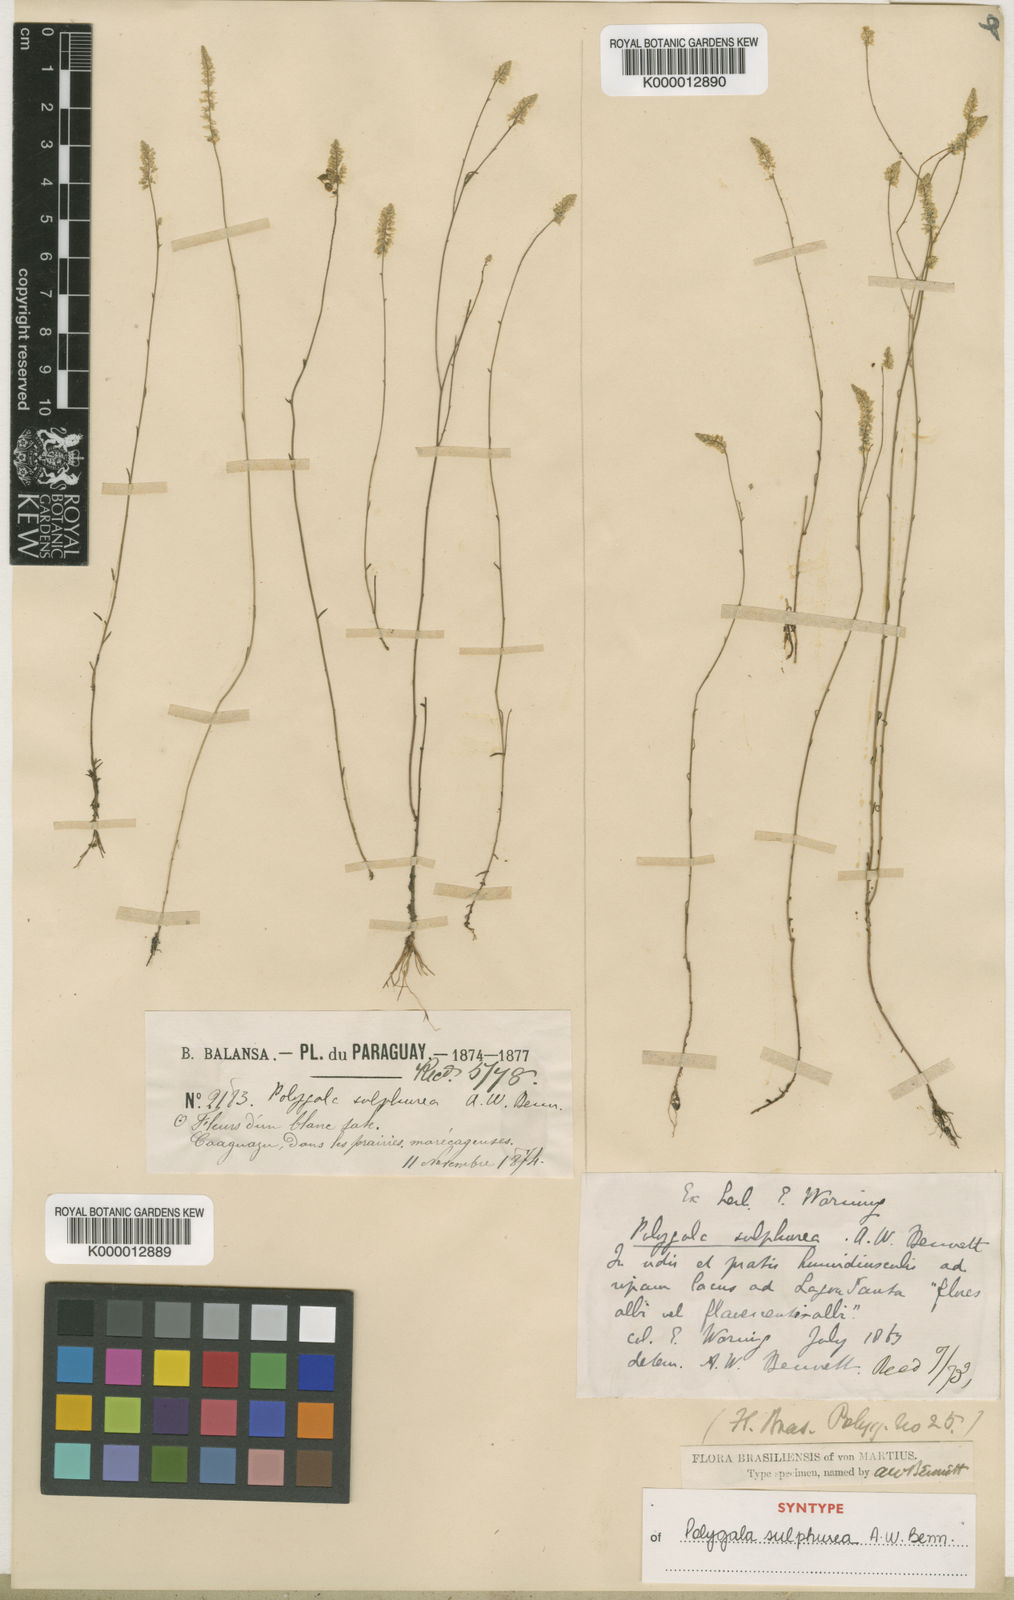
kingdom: Plantae
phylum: Tracheophyta
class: Magnoliopsida
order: Fabales
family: Polygalaceae
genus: Polygala
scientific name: Polygala tenuis
